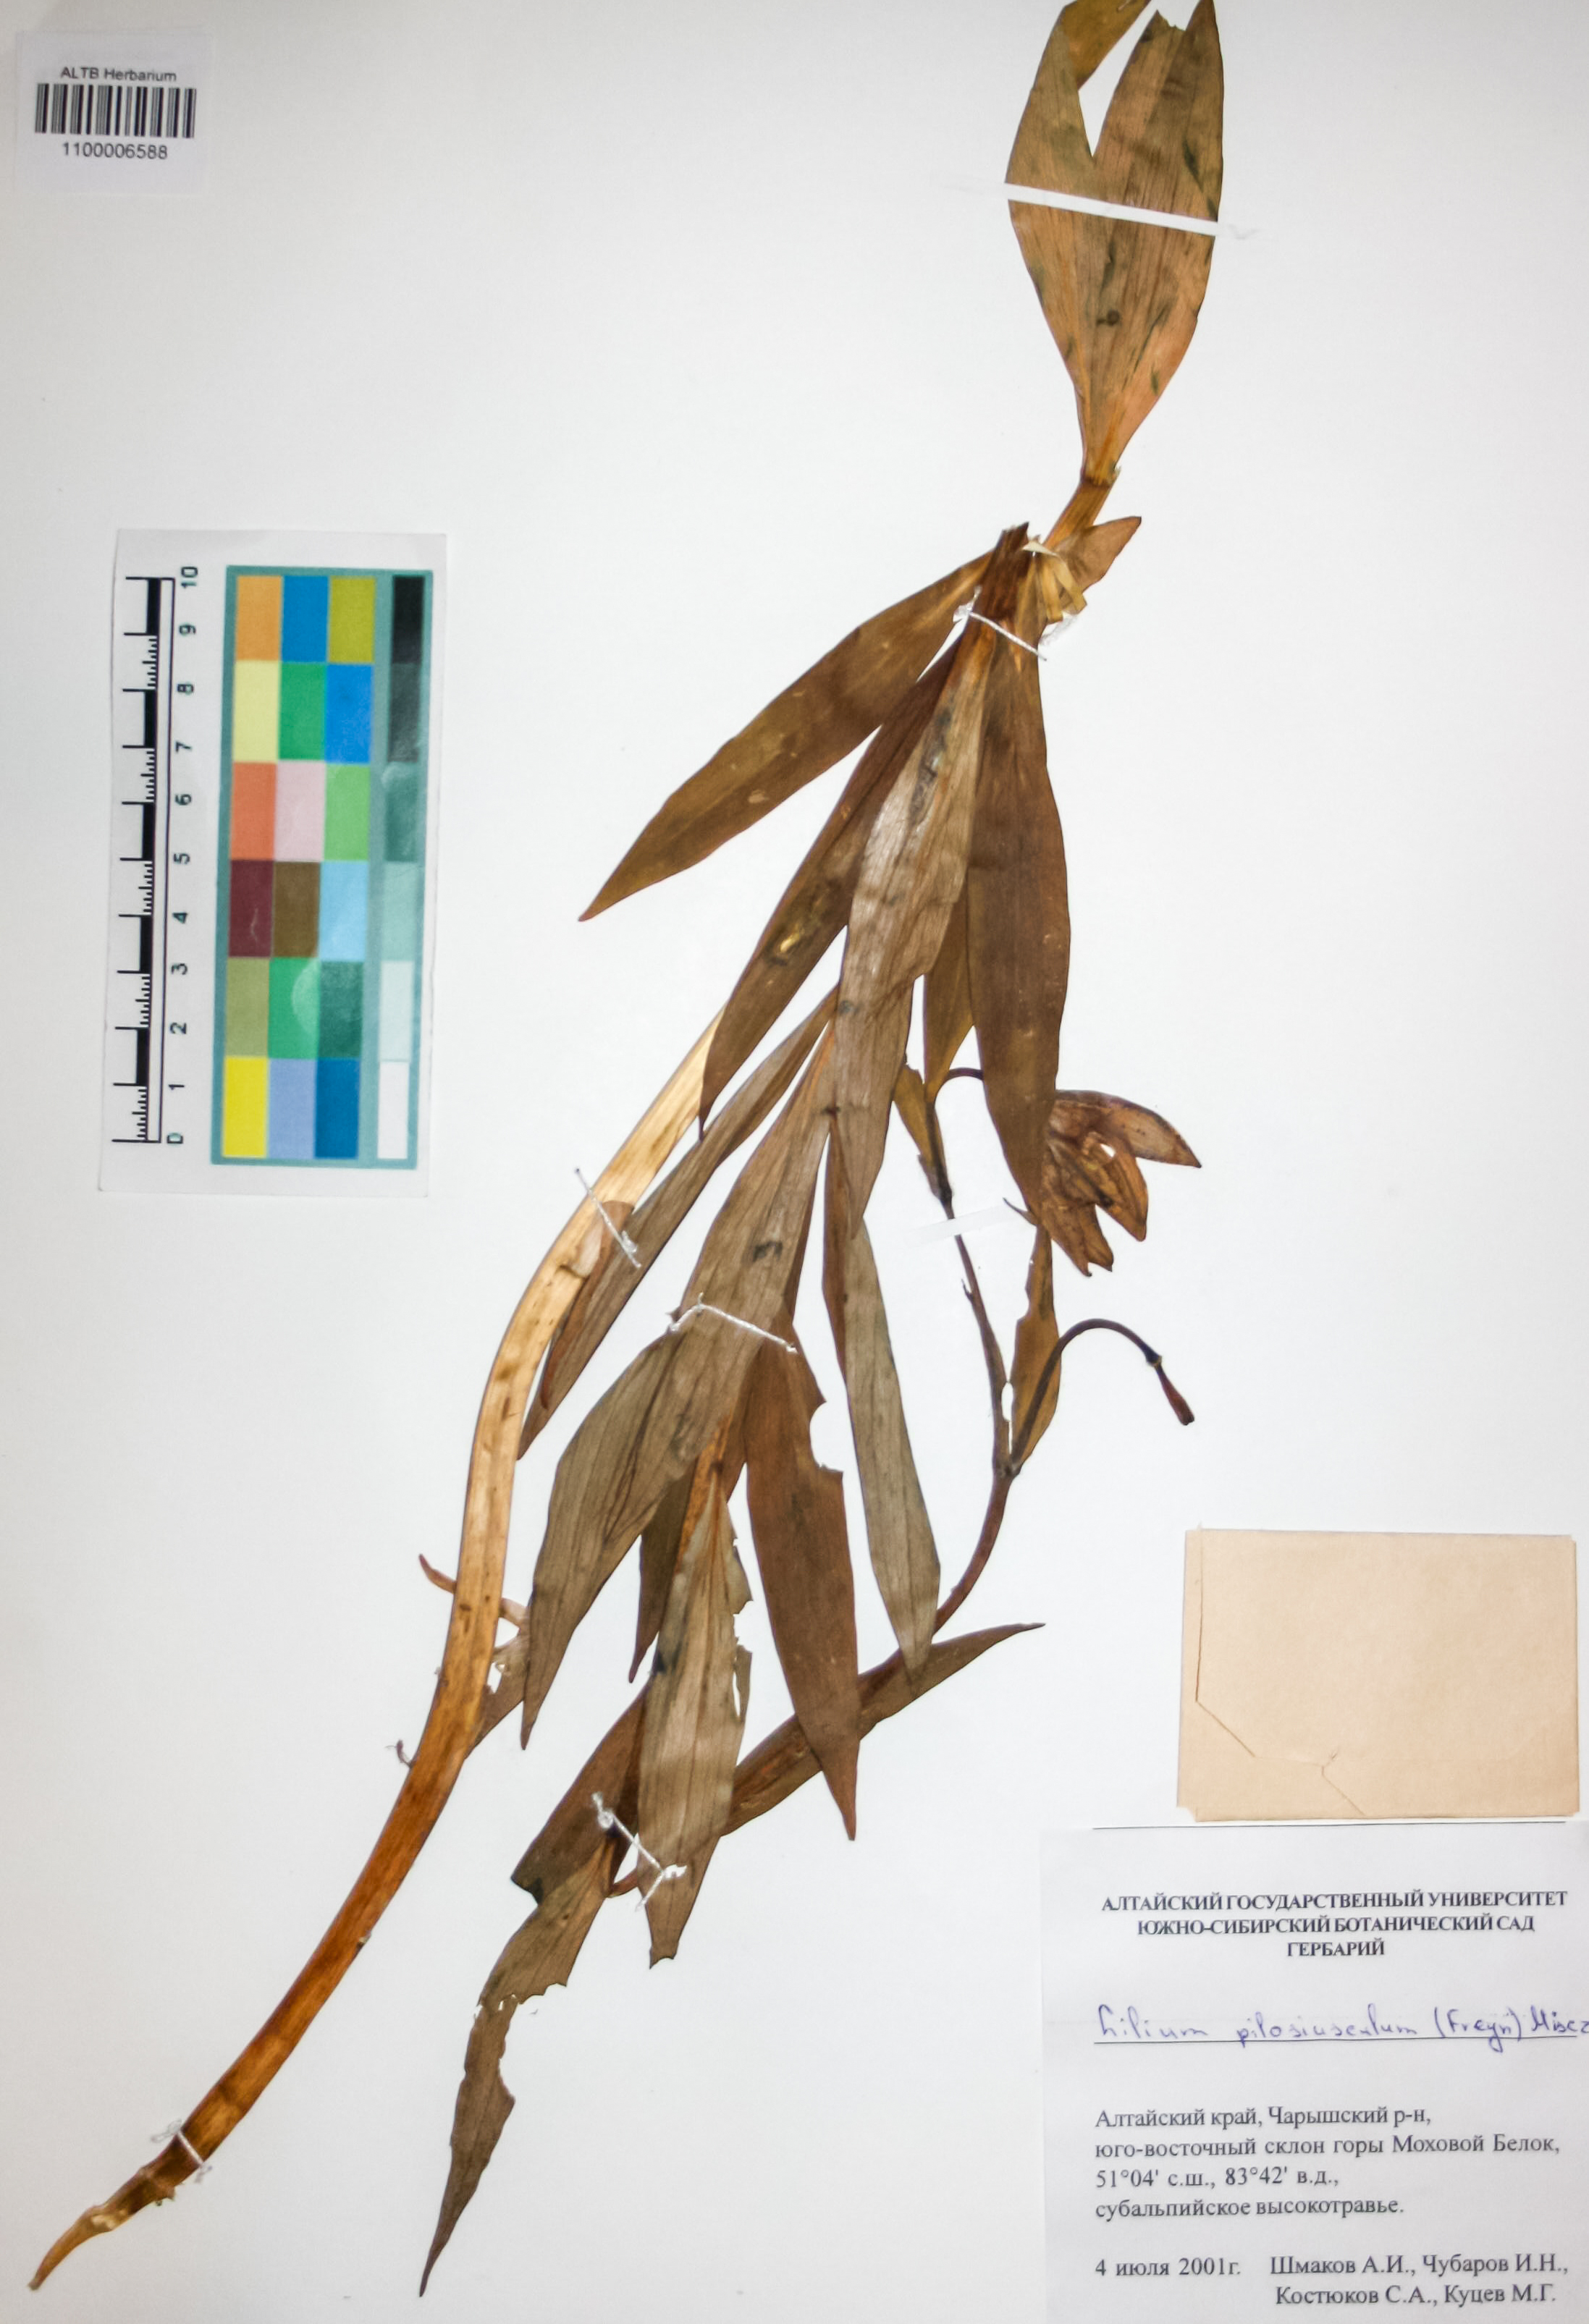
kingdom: Plantae
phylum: Tracheophyta
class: Liliopsida
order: Liliales
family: Liliaceae
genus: Lilium
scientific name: Lilium martagon
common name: Martagon lily
